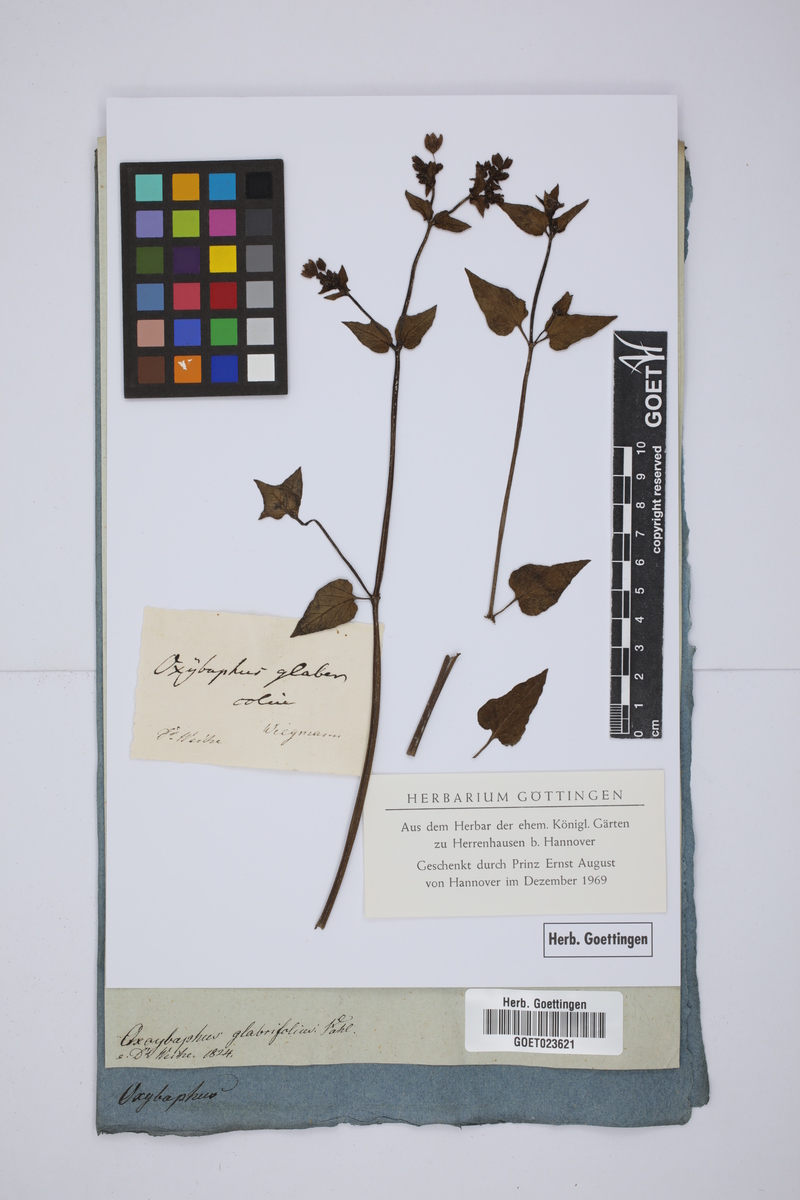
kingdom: Plantae
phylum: Tracheophyta
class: Magnoliopsida
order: Caryophyllales
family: Nyctaginaceae
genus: Mirabilis
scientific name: Mirabilis glabrifolia
